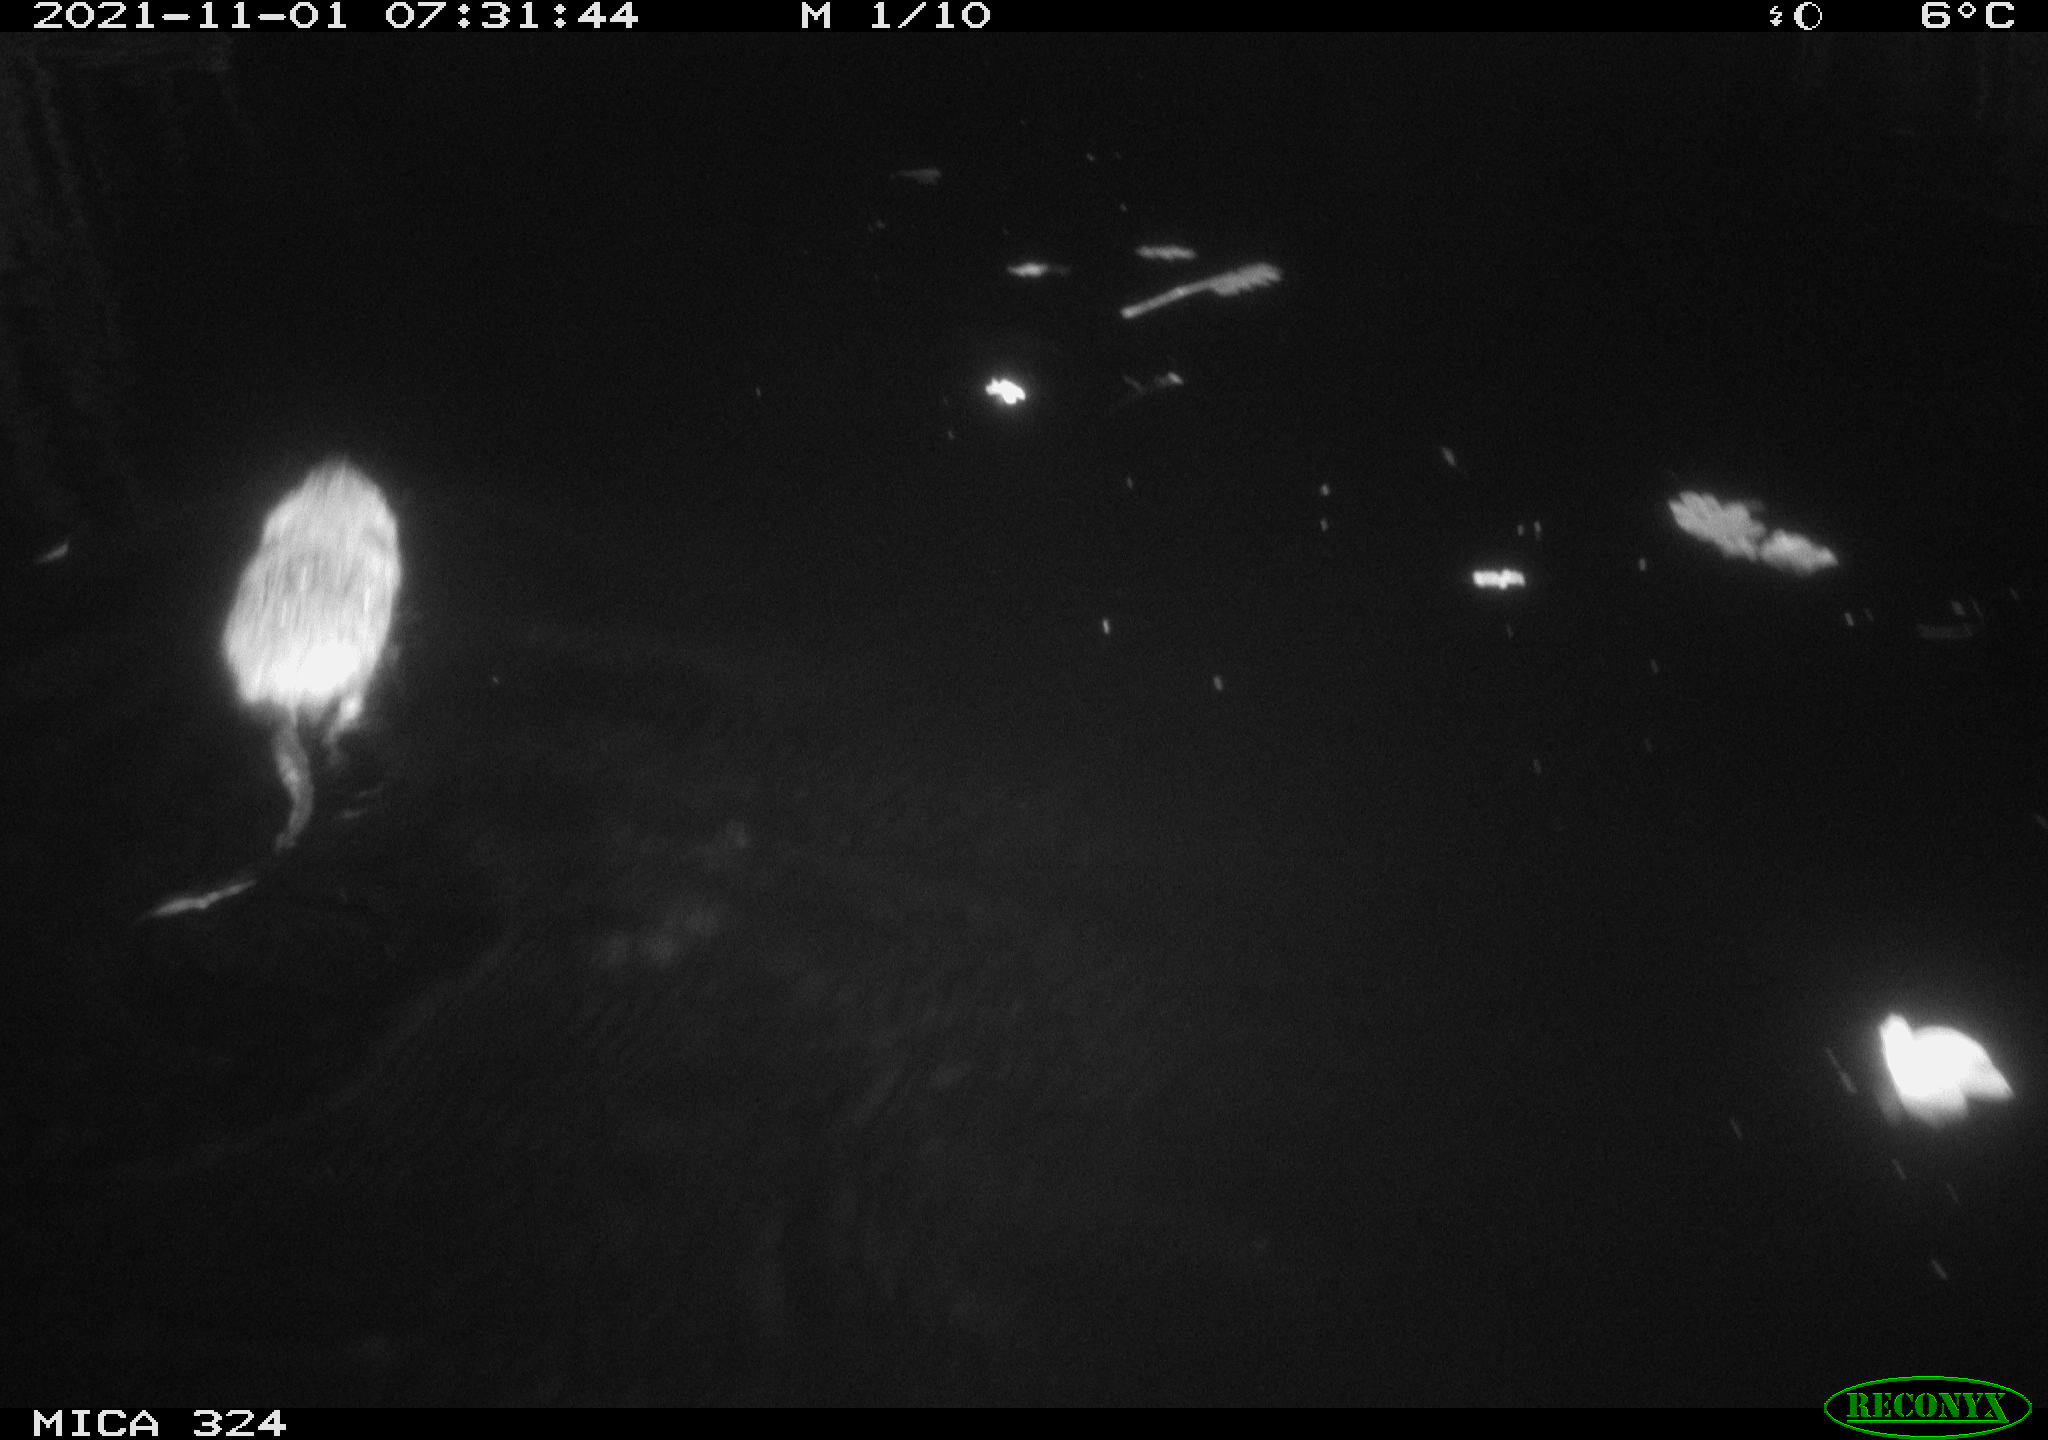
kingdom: Animalia
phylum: Chordata
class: Mammalia
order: Rodentia
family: Cricetidae
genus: Ondatra
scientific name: Ondatra zibethicus
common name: Muskrat
